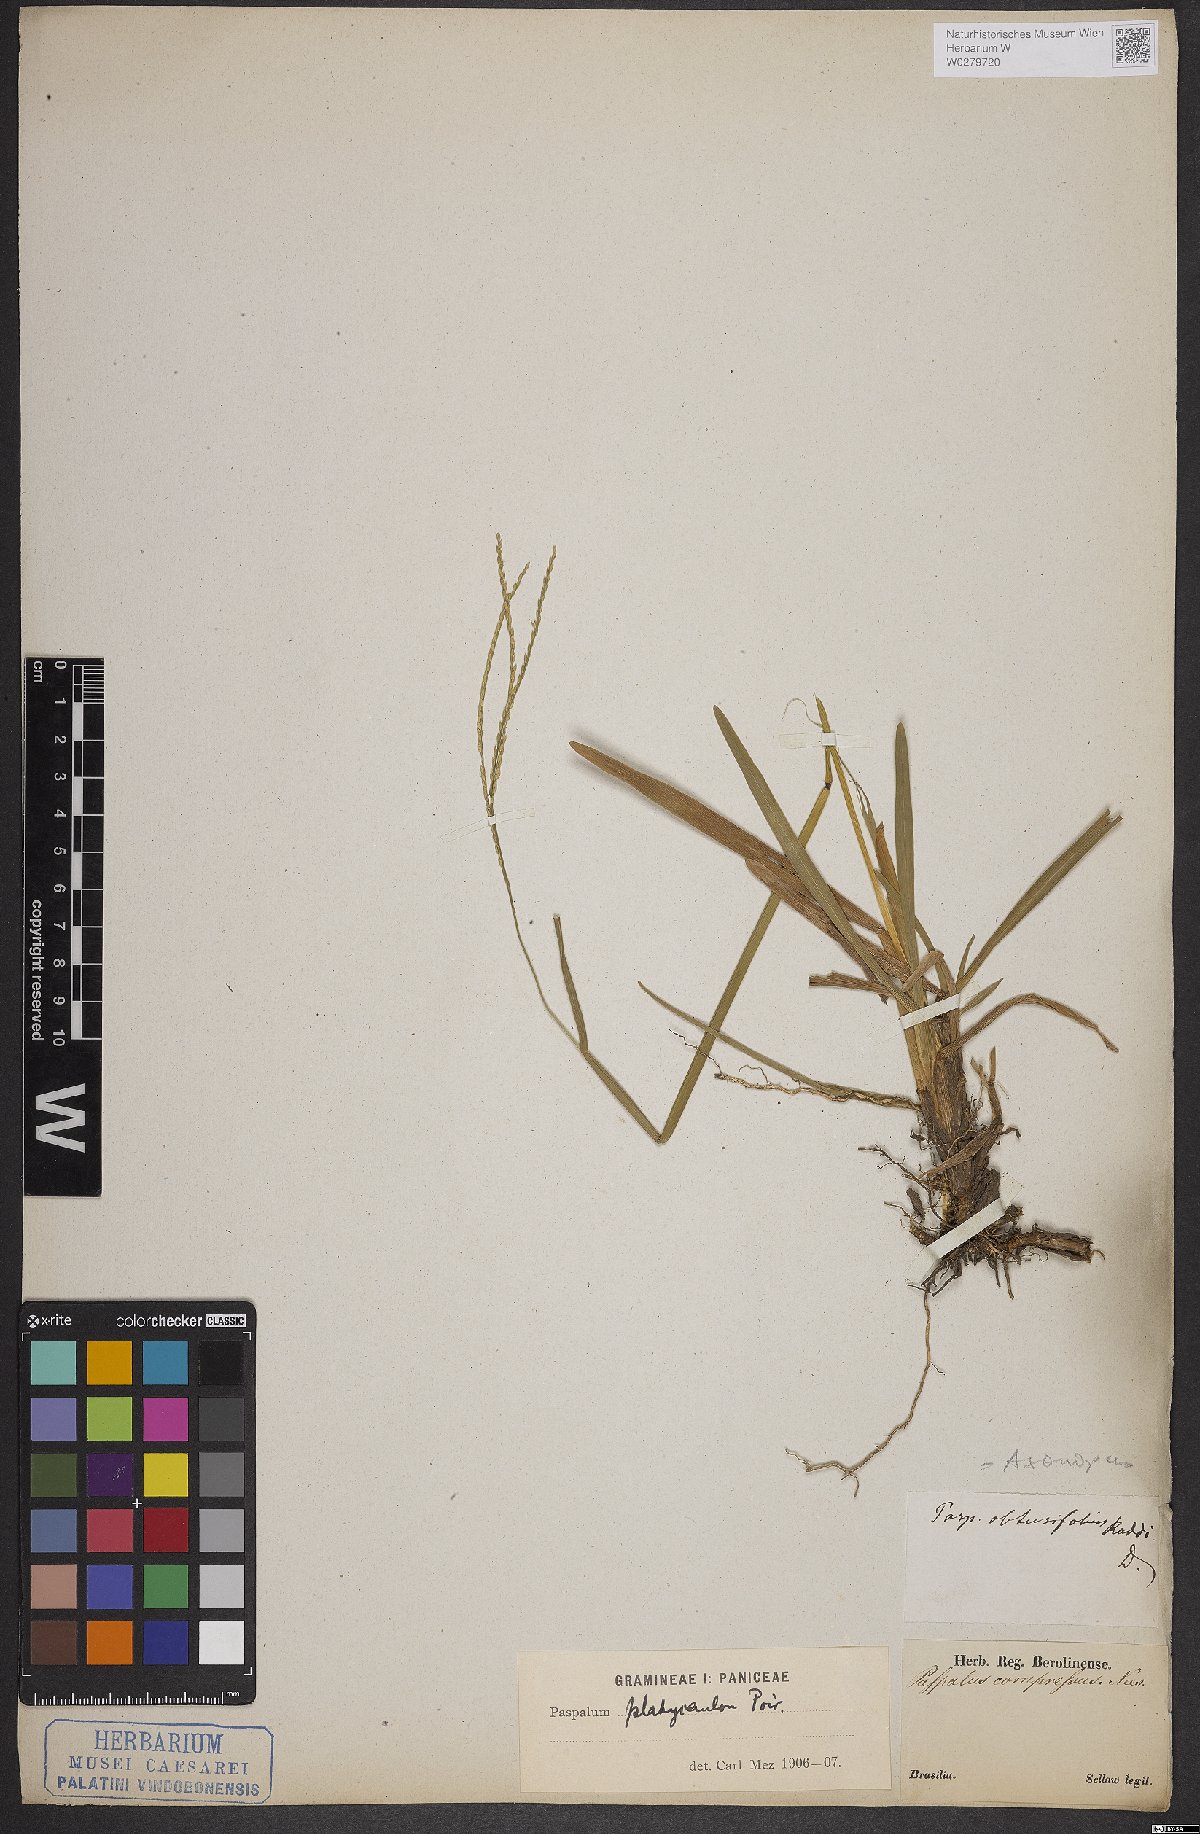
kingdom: Plantae
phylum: Tracheophyta
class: Liliopsida
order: Poales
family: Poaceae
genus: Axonopus
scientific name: Axonopus compressus
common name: American carpet grass
